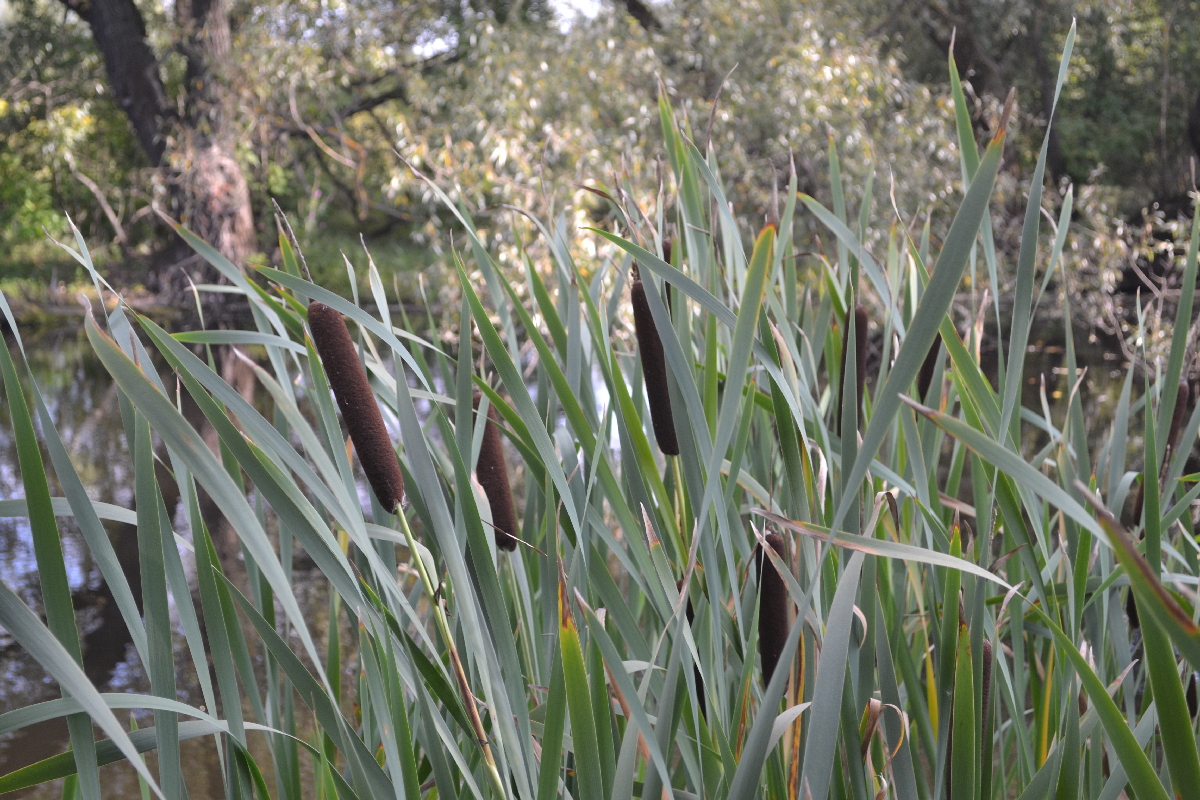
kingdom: Plantae
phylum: Tracheophyta
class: Liliopsida
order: Poales
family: Typhaceae
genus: Typha
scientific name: Typha latifolia
